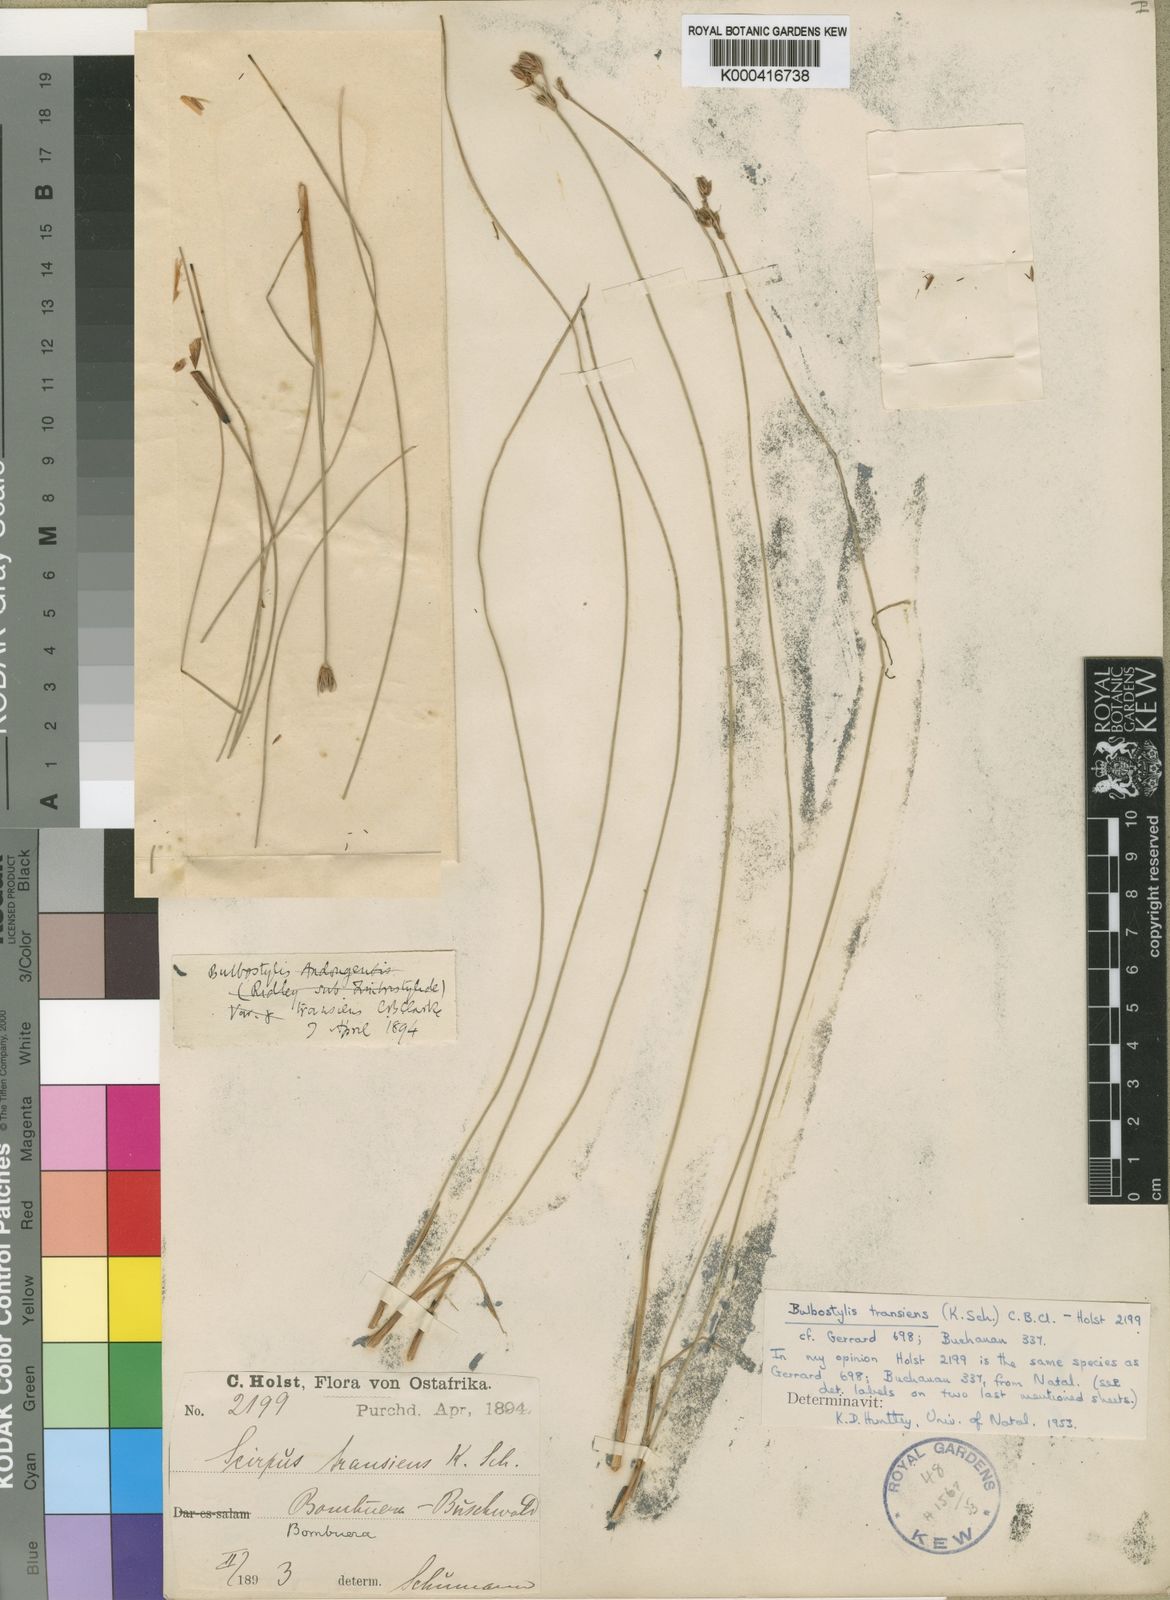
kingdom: Plantae
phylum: Tracheophyta
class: Liliopsida
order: Poales
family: Cyperaceae
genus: Bulbostylis
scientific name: Bulbostylis boeckeleriana
